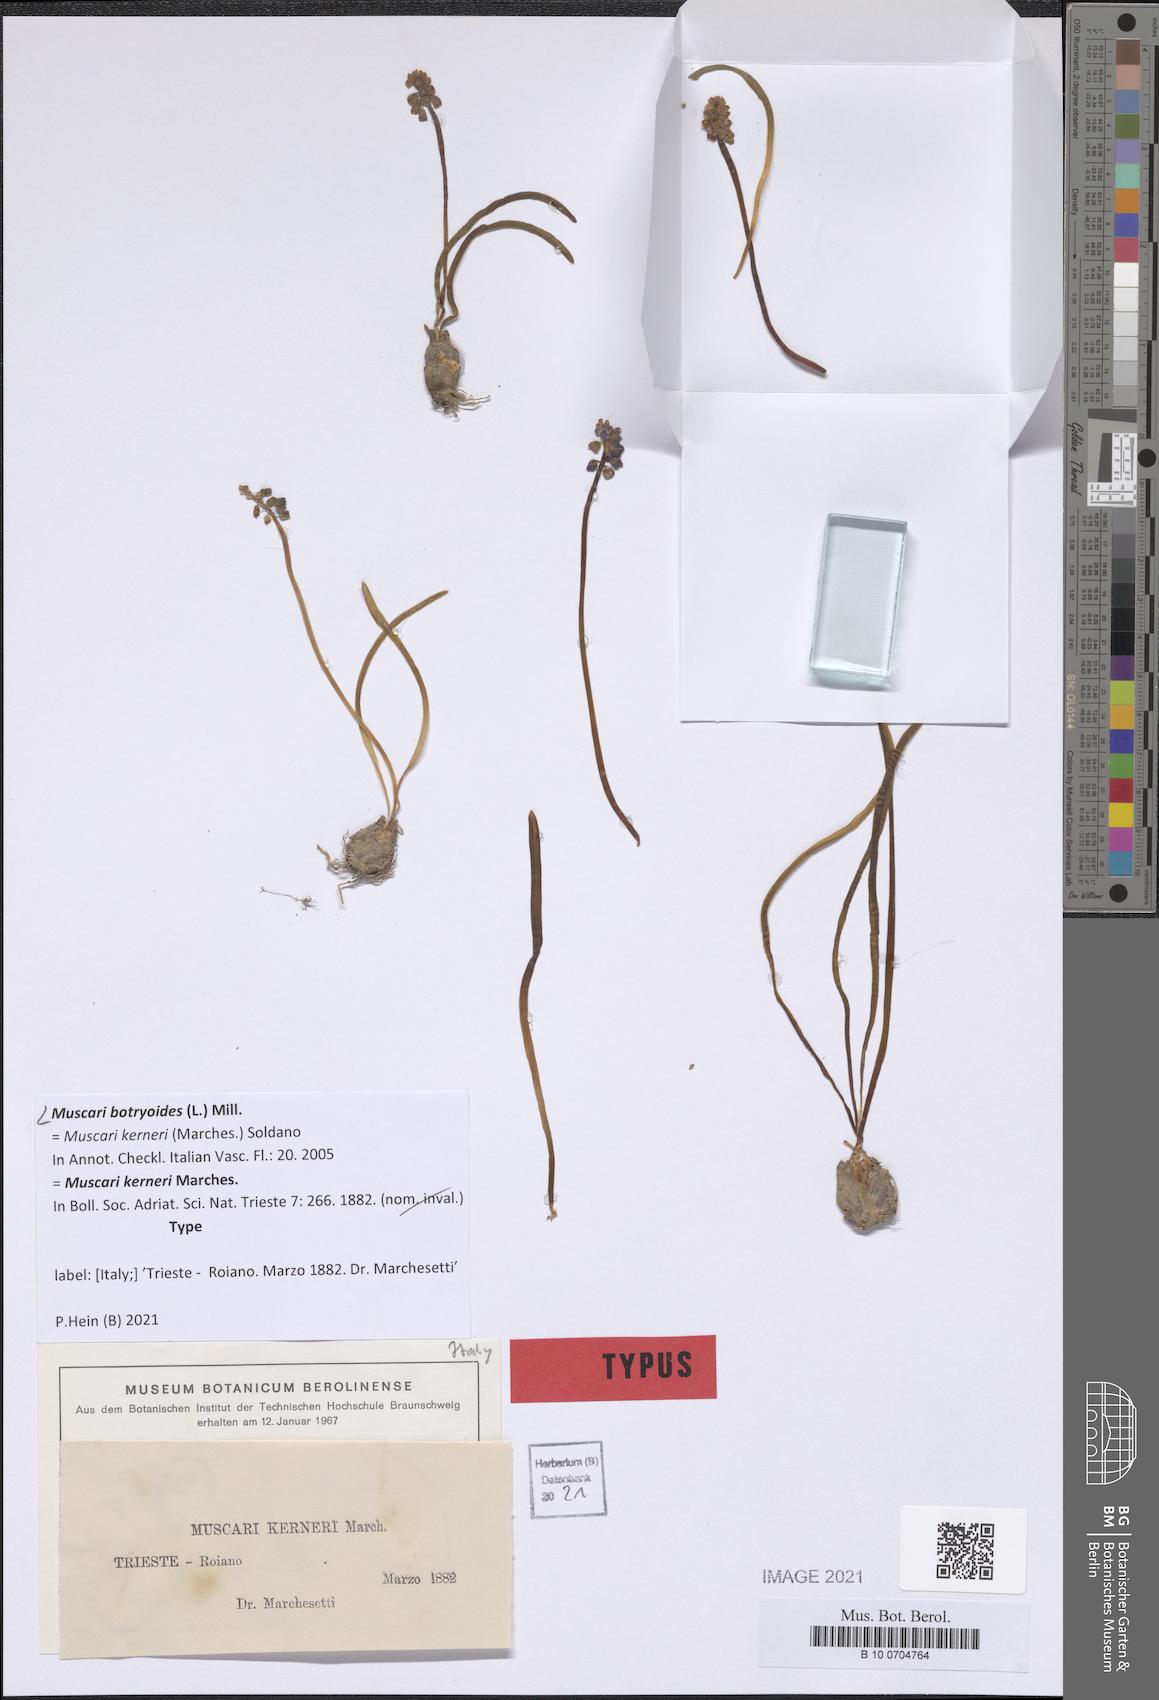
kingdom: Plantae
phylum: Tracheophyta
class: Liliopsida
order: Asparagales
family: Asparagaceae
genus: Muscari
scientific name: Muscari botryoides
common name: Compact grape-hyacinth
